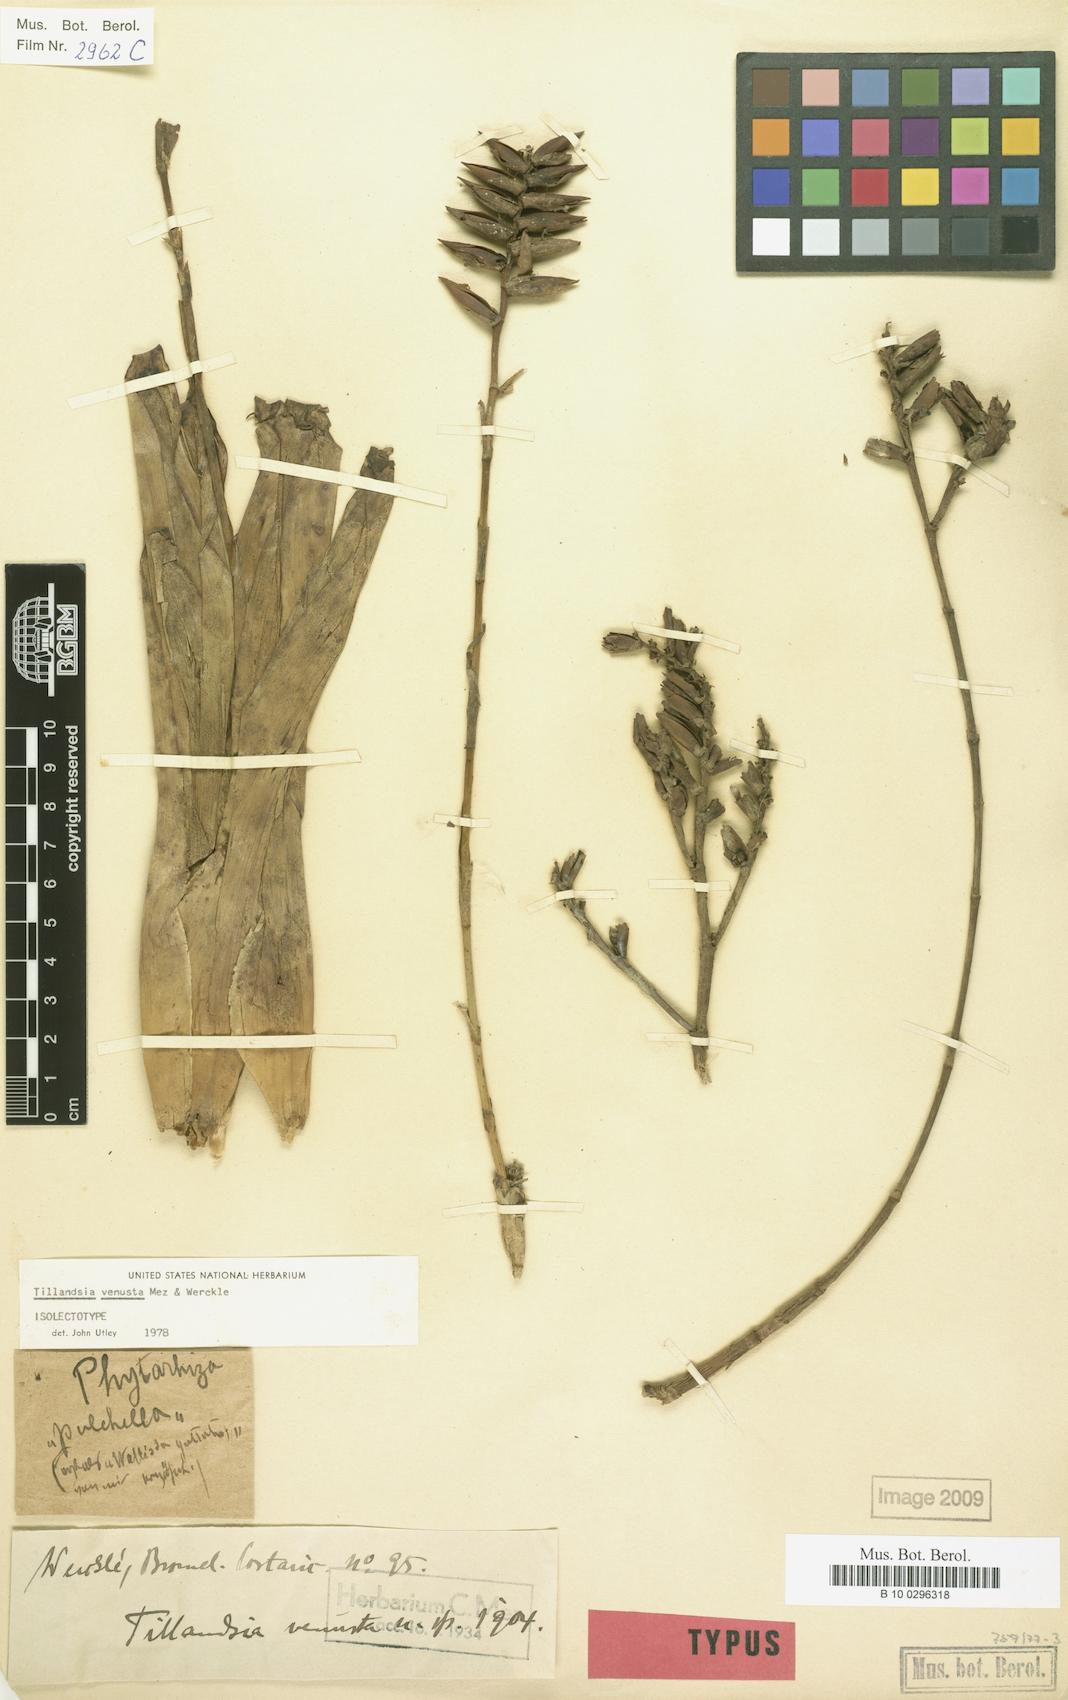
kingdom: Plantae
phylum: Tracheophyta
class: Liliopsida
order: Poales
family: Bromeliaceae
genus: Racinaea
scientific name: Racinaea venusta
